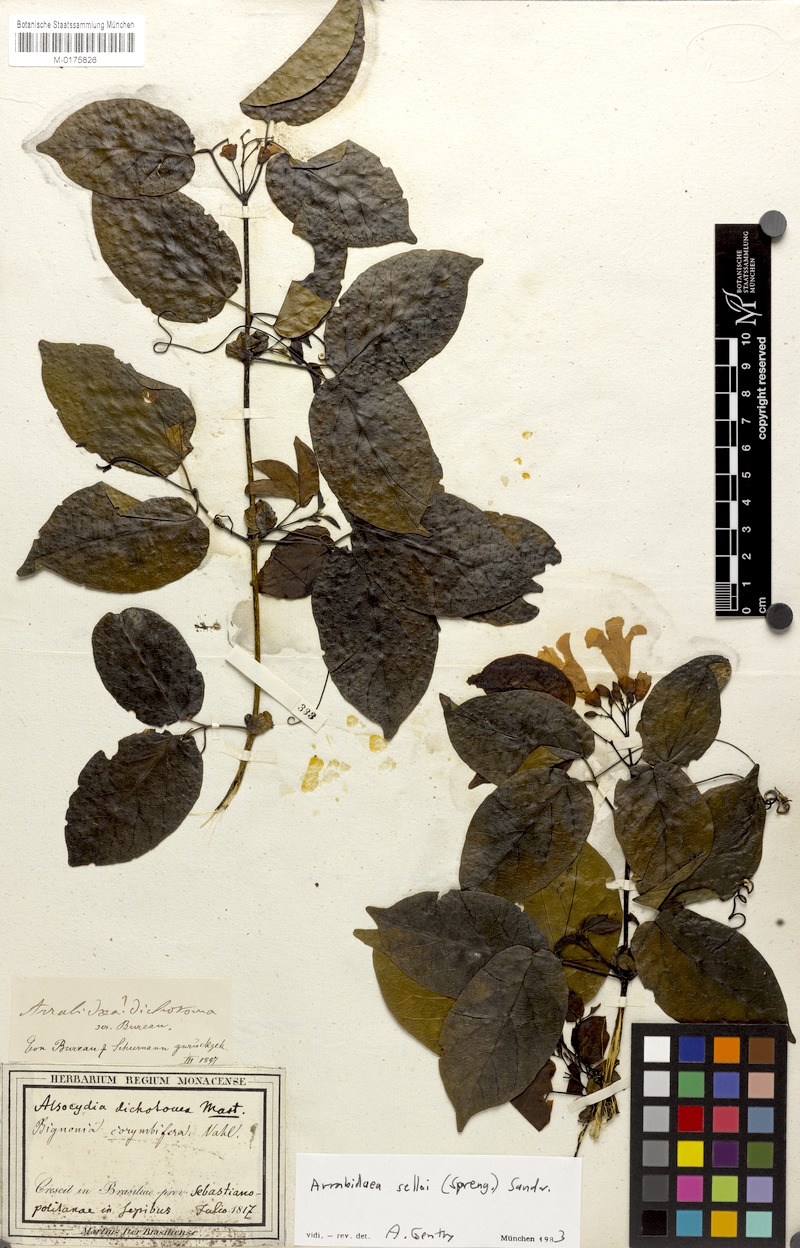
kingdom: Plantae
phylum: Tracheophyta
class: Magnoliopsida
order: Lamiales
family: Bignoniaceae
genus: Tanaecium
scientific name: Tanaecium selloi
